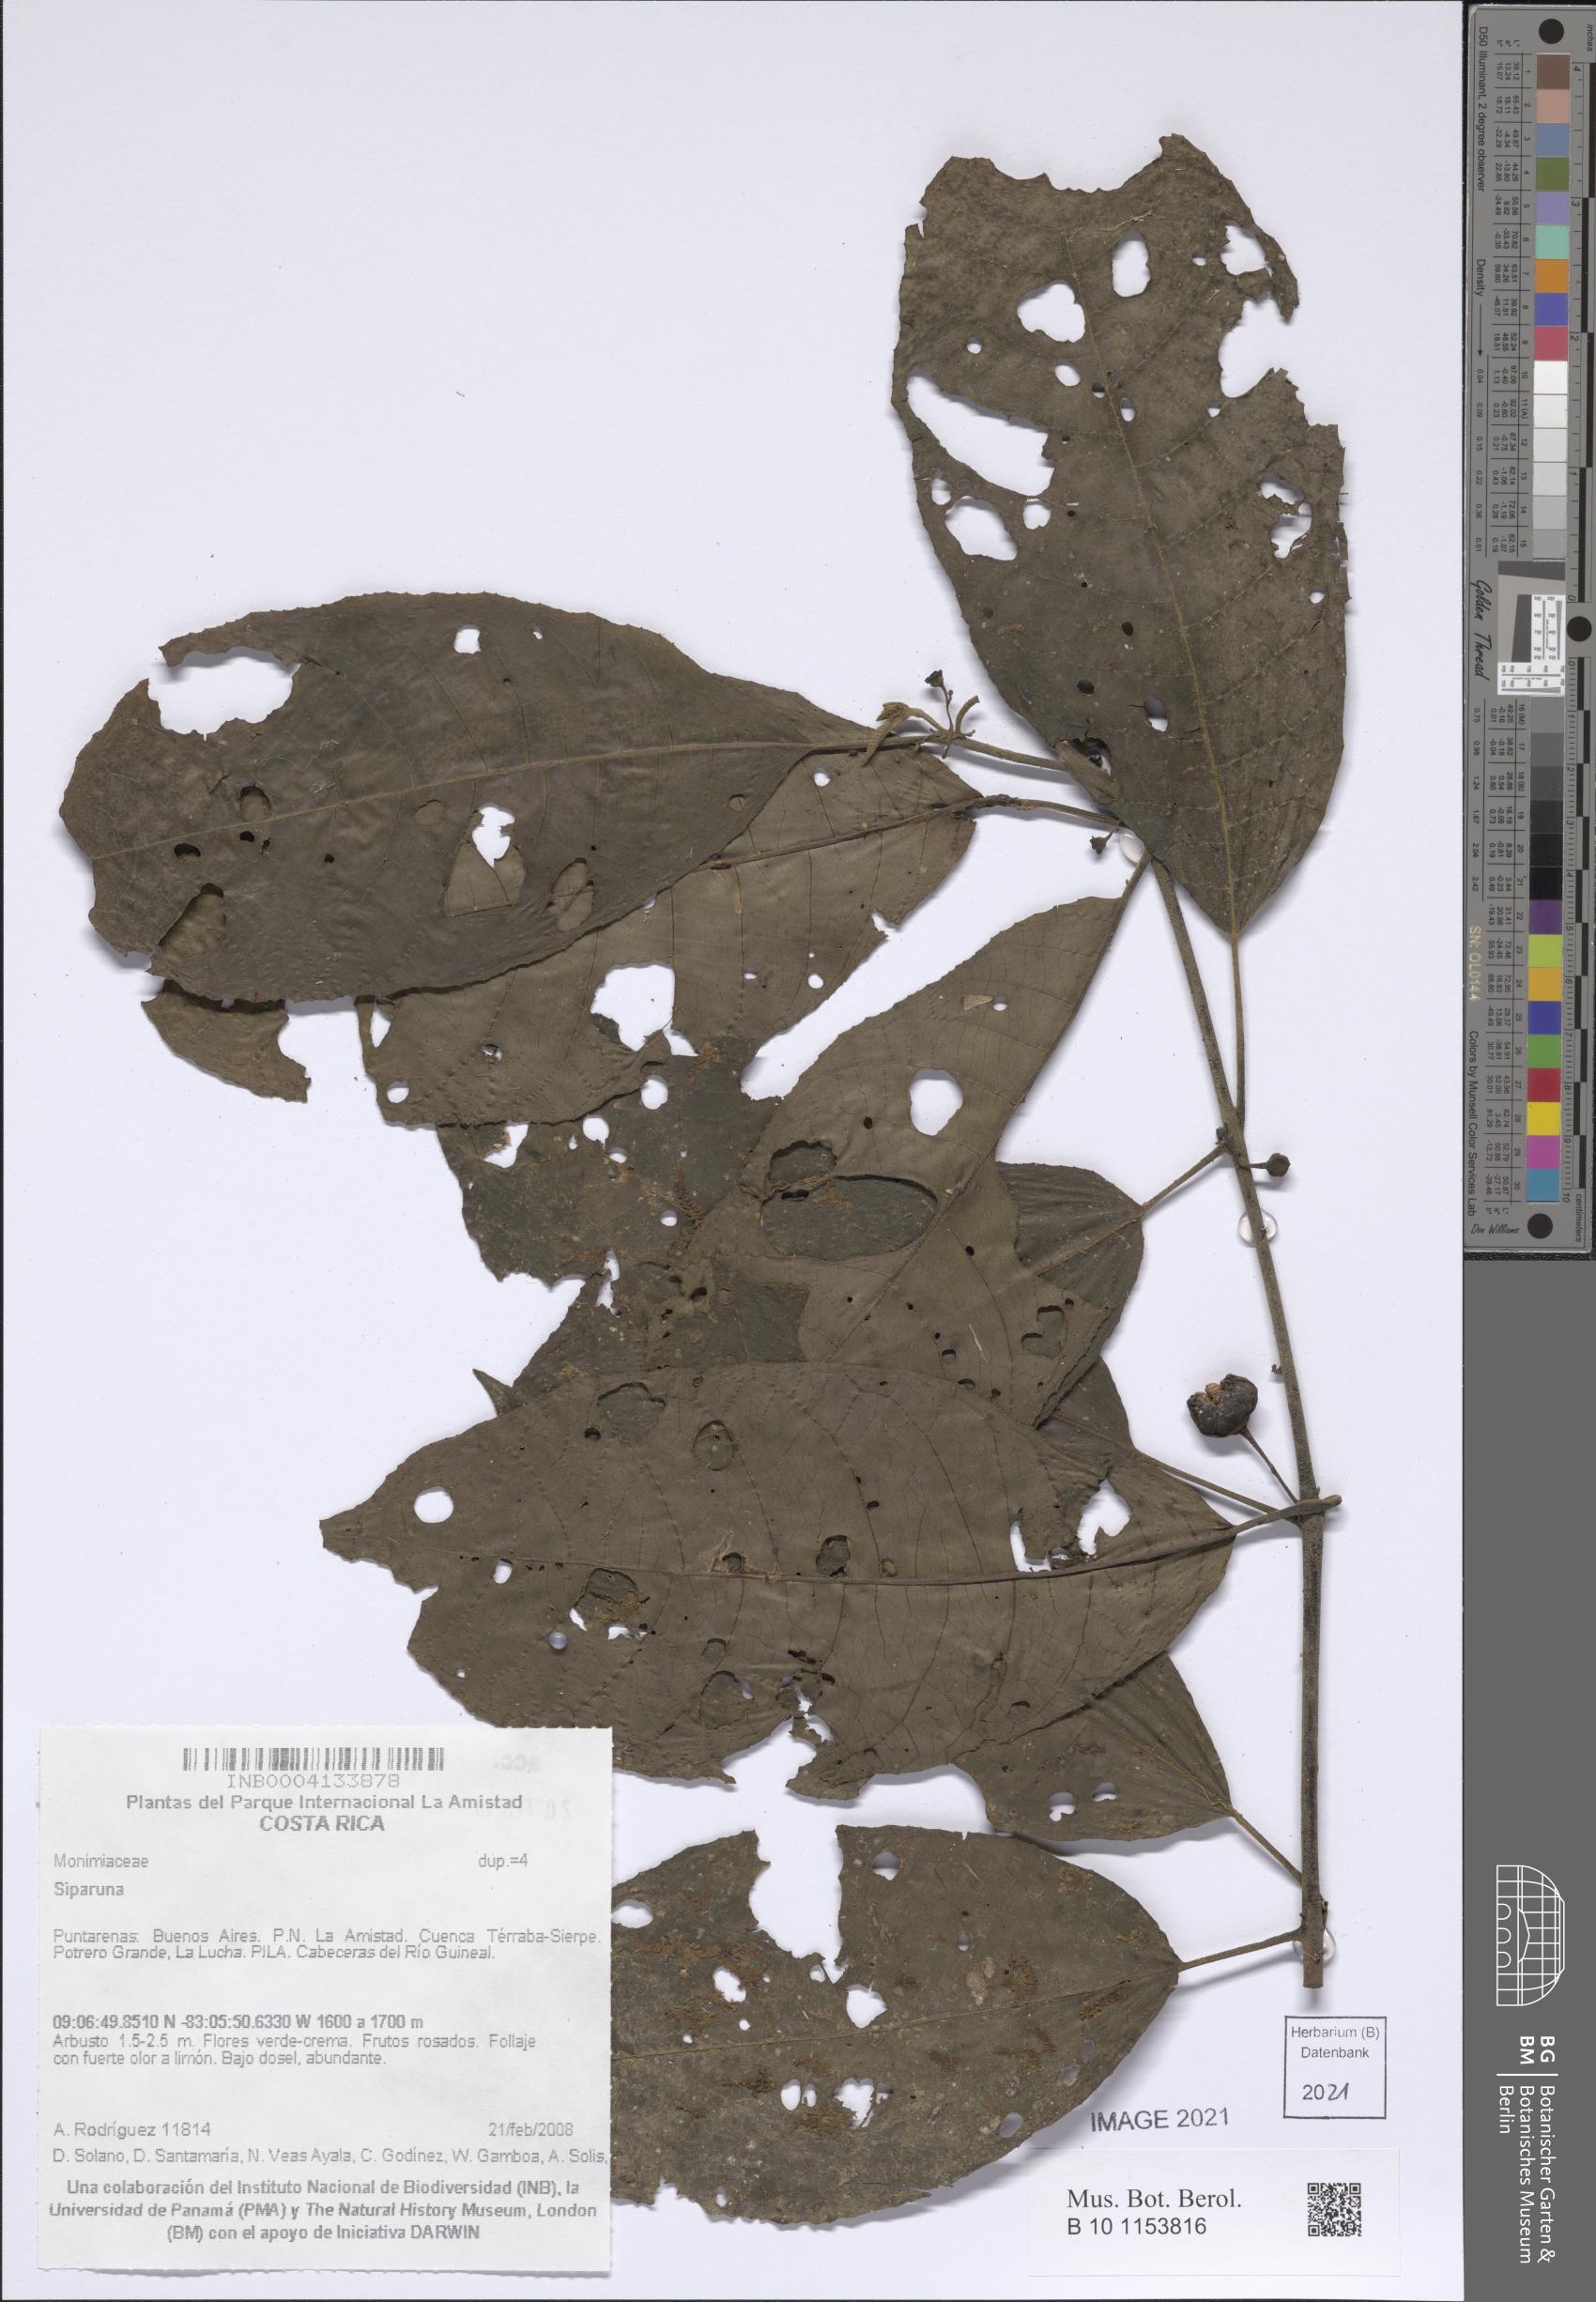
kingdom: Plantae
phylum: Tracheophyta
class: Magnoliopsida
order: Laurales
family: Siparunaceae
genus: Siparuna
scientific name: Siparuna
